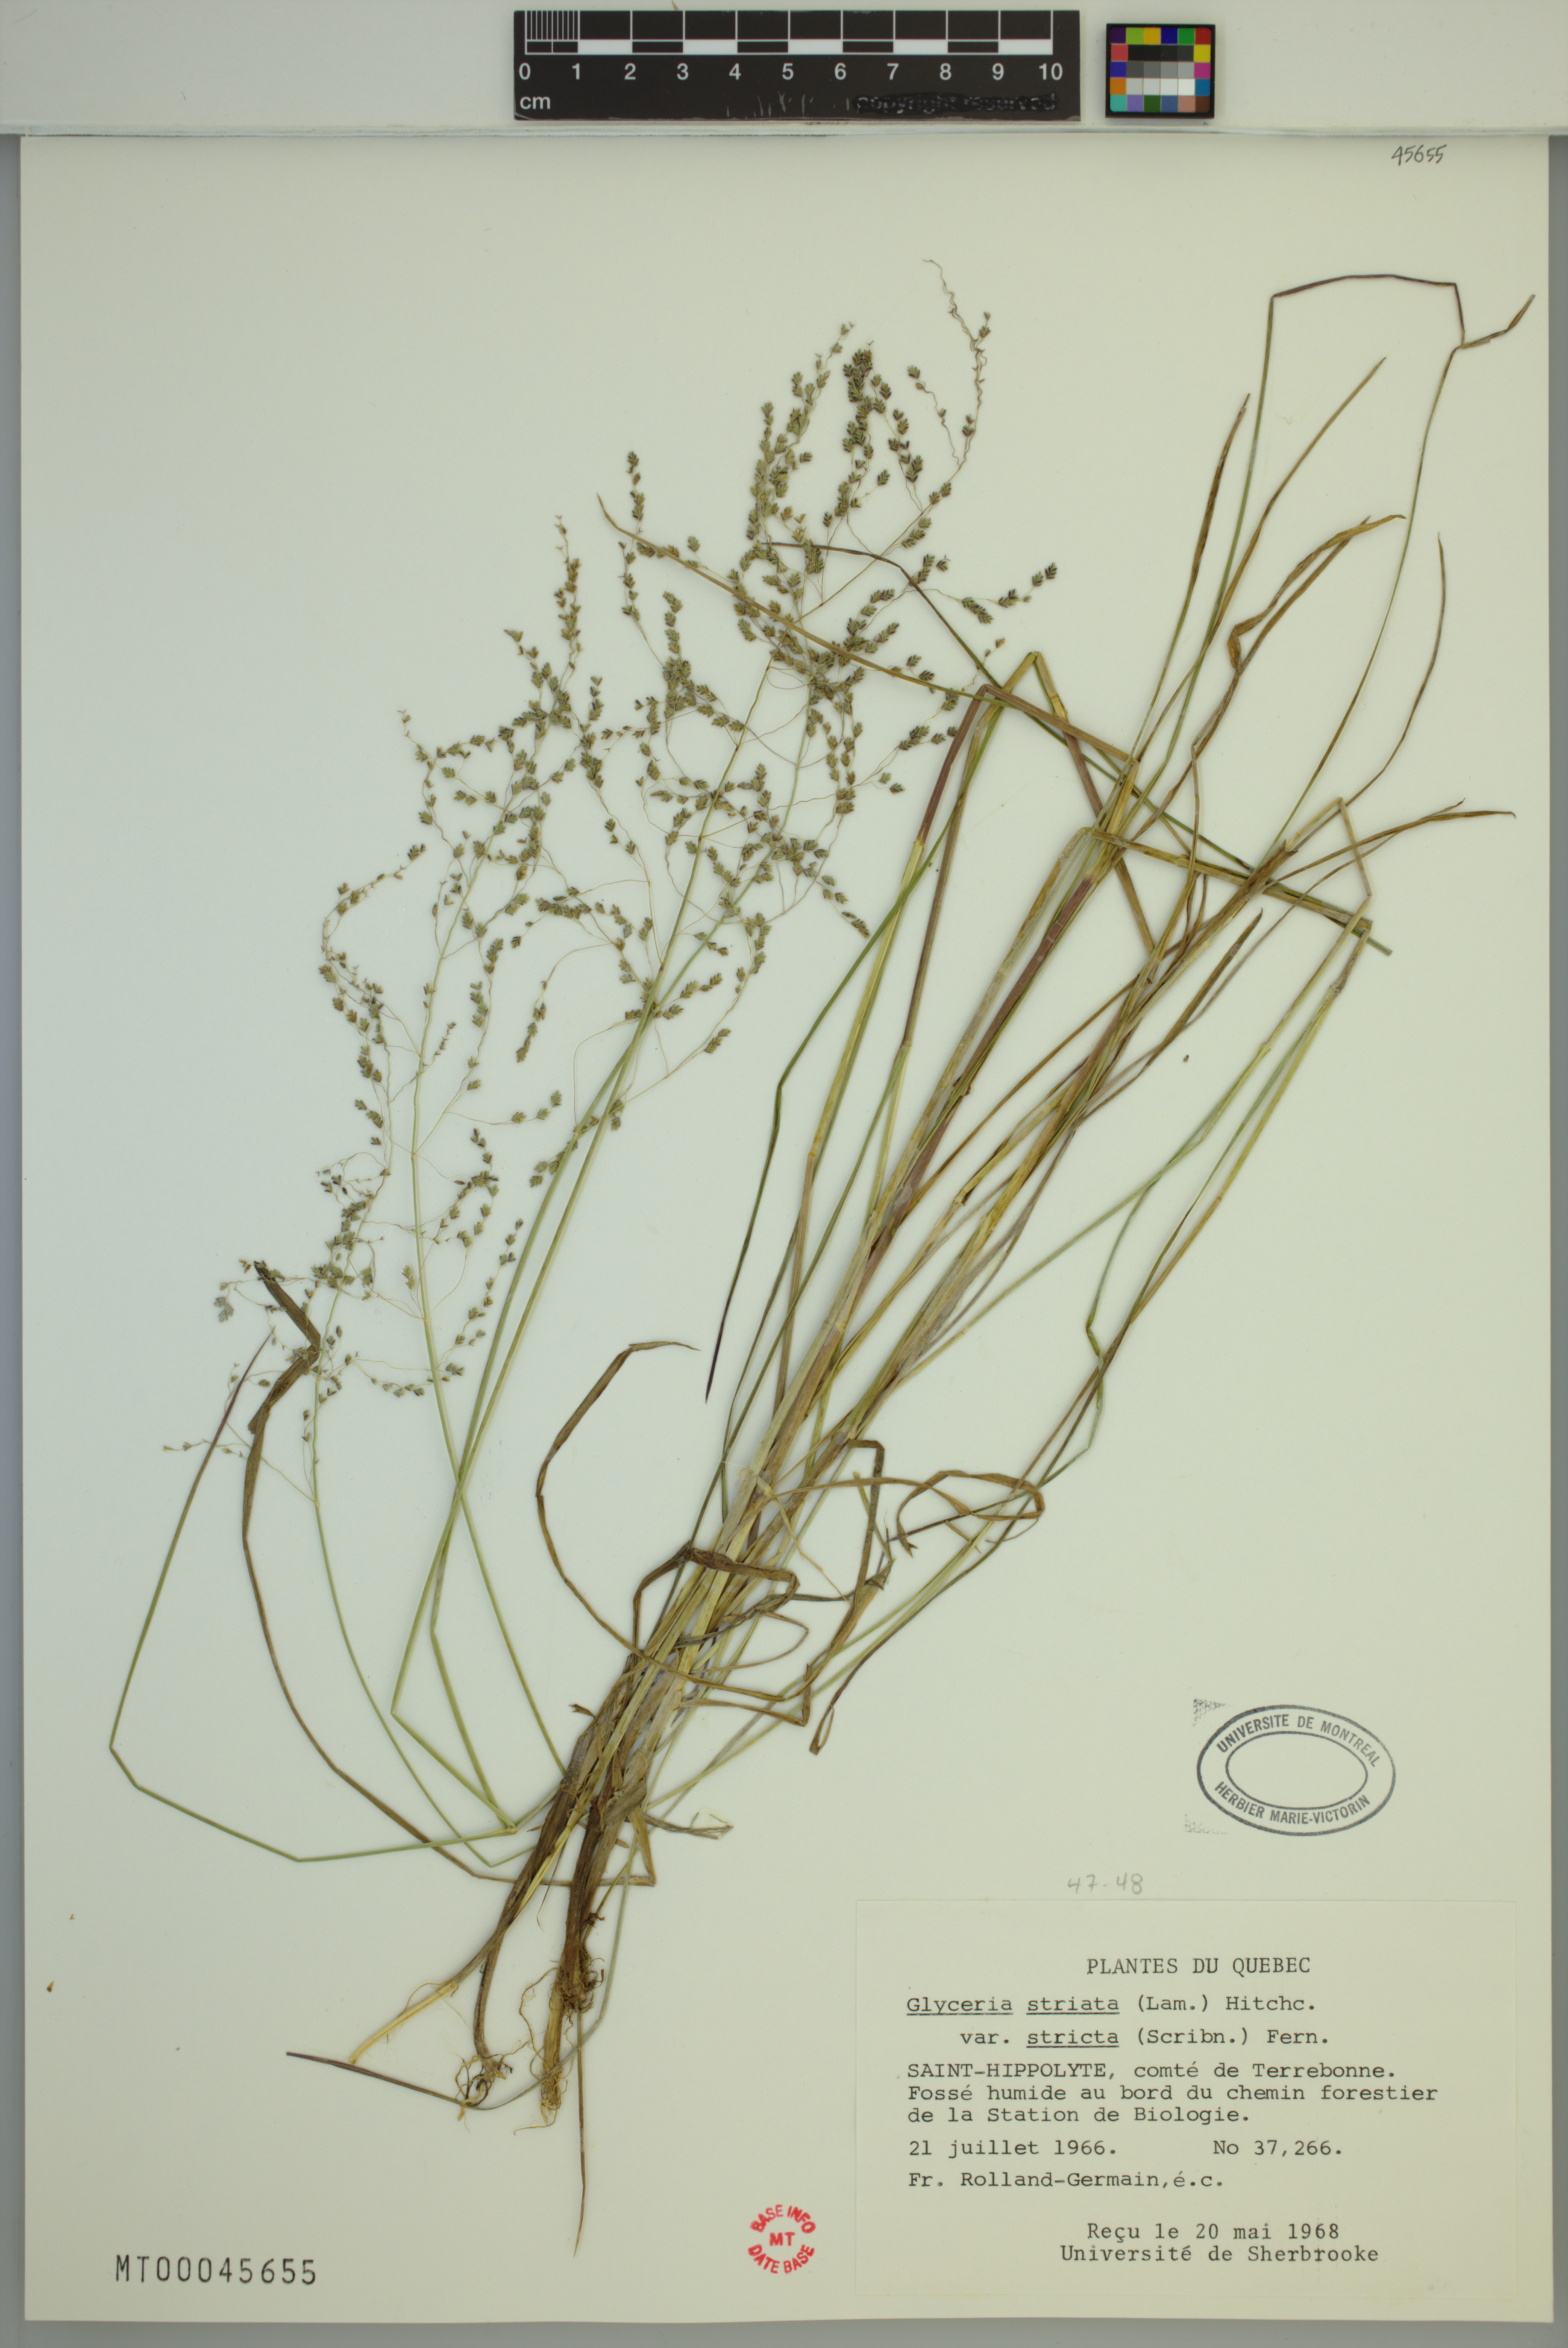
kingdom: Plantae
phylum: Tracheophyta
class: Liliopsida
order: Poales
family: Poaceae
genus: Glyceria
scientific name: Glyceria striata
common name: Fowl manna grass
